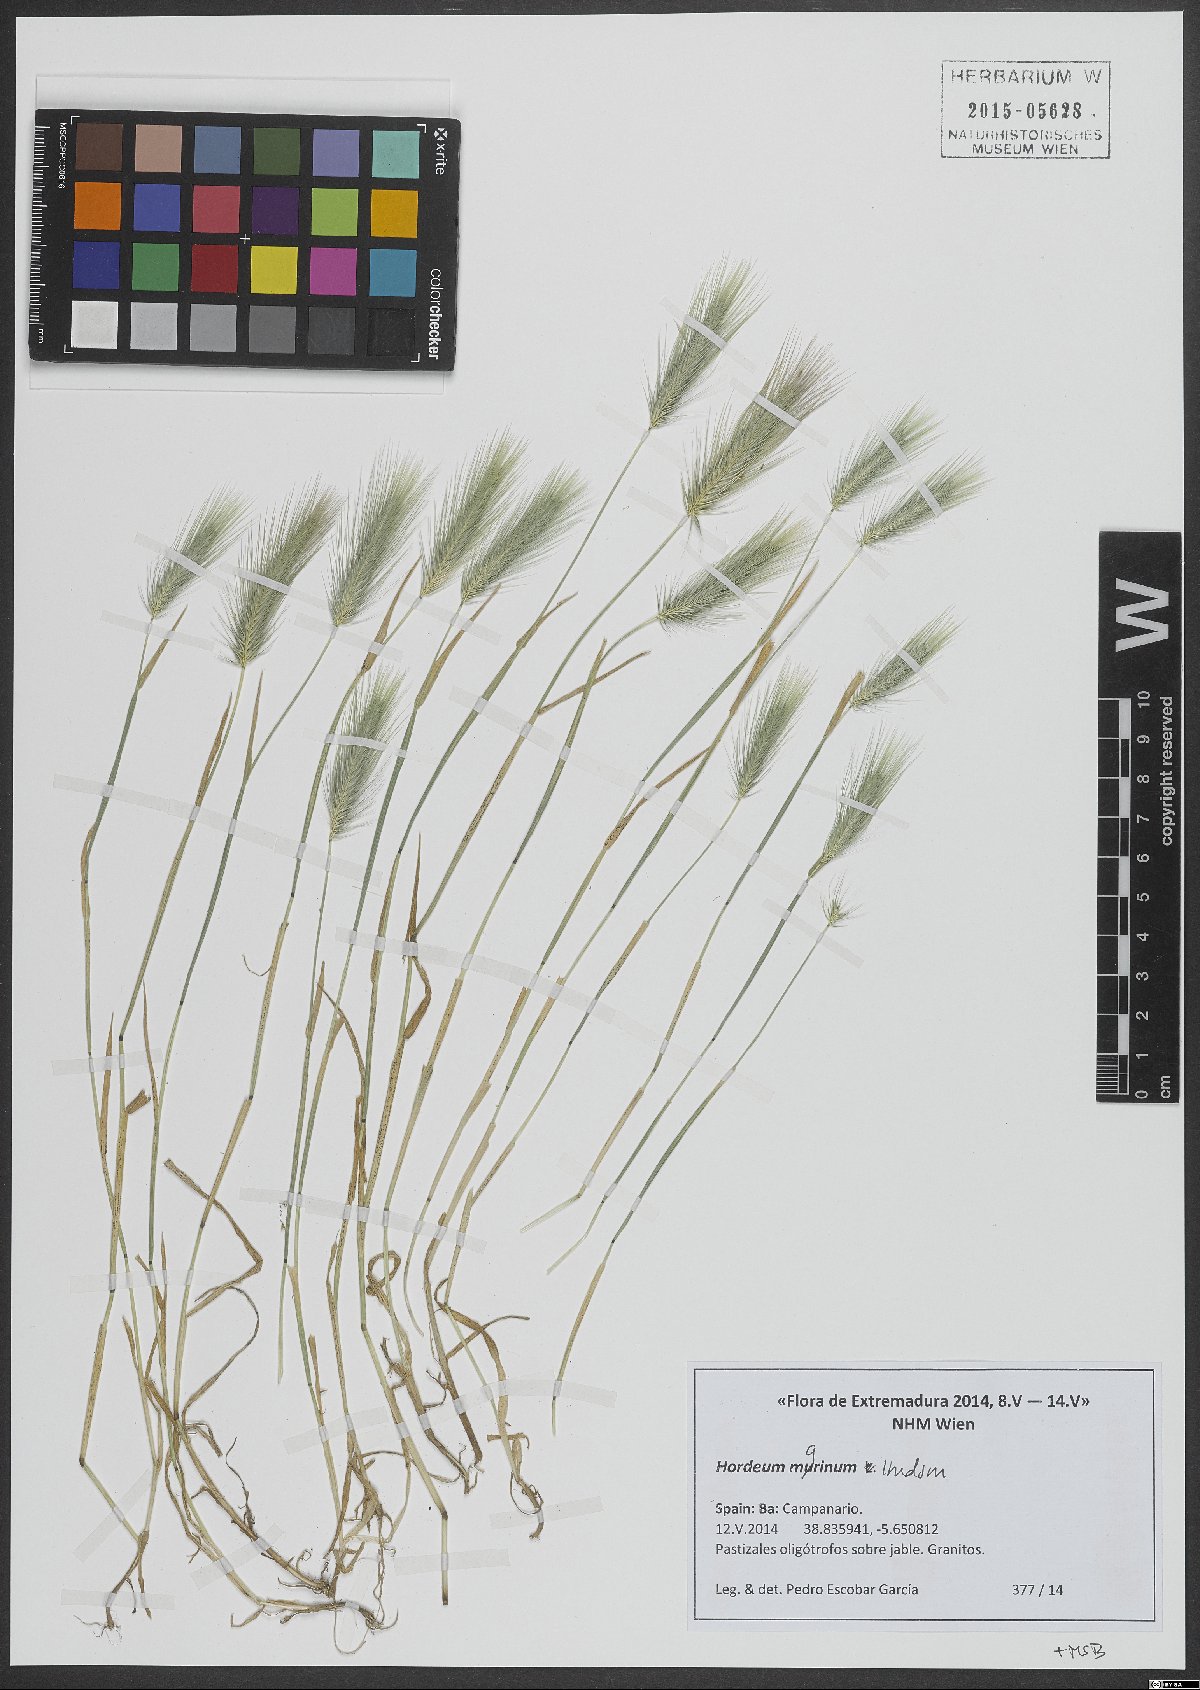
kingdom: Plantae
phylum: Tracheophyta
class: Liliopsida
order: Poales
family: Poaceae
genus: Hordeum
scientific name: Hordeum marinum
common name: Sea barley
